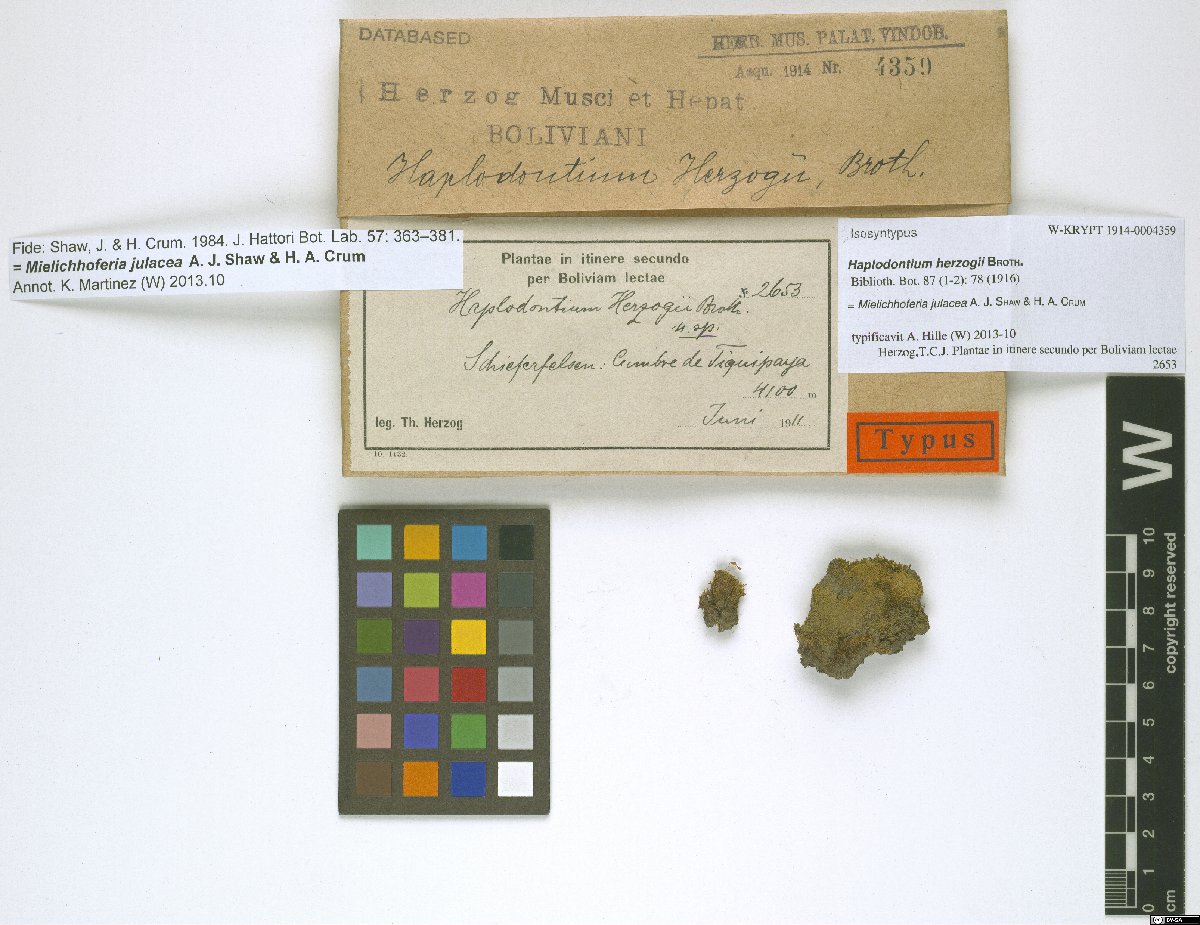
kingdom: Plantae
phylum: Bryophyta
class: Bryopsida
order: Bryales
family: Mniaceae
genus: Mielichhoferia
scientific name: Mielichhoferia julacea
